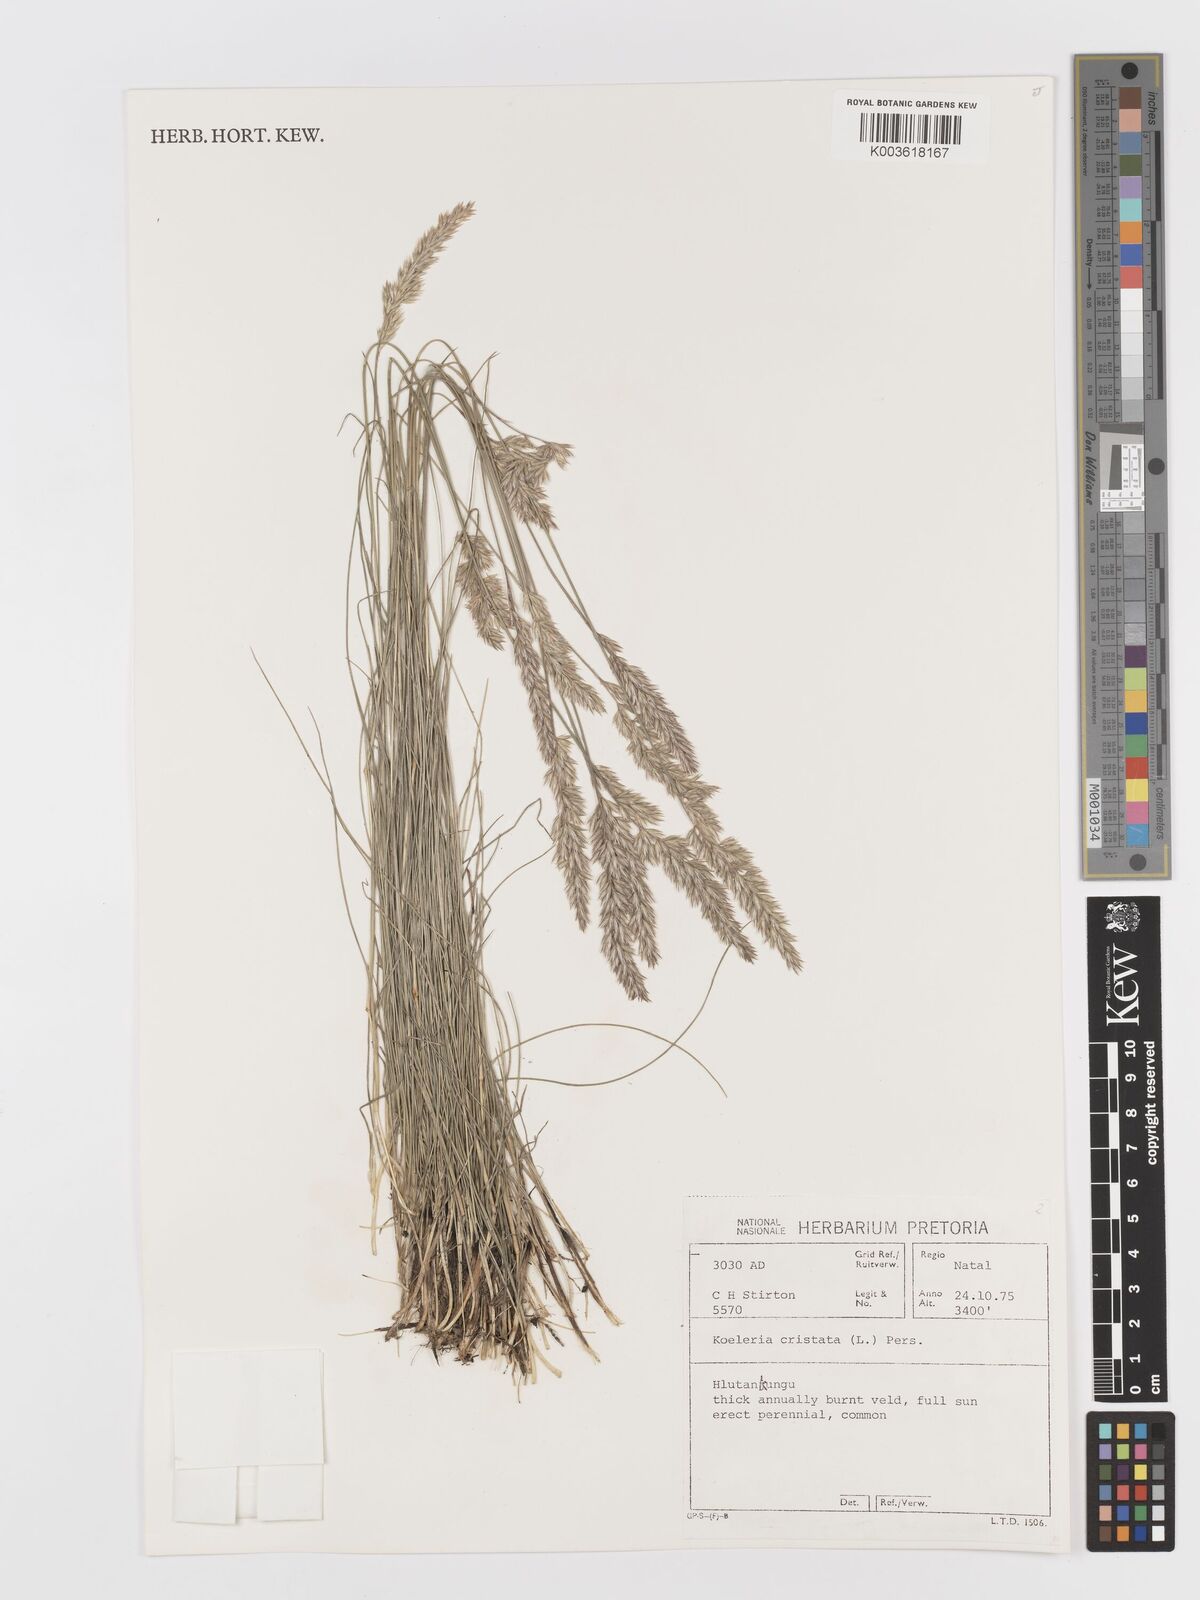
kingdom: Plantae
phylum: Tracheophyta
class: Liliopsida
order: Poales
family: Poaceae
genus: Koeleria
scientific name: Koeleria capensis
